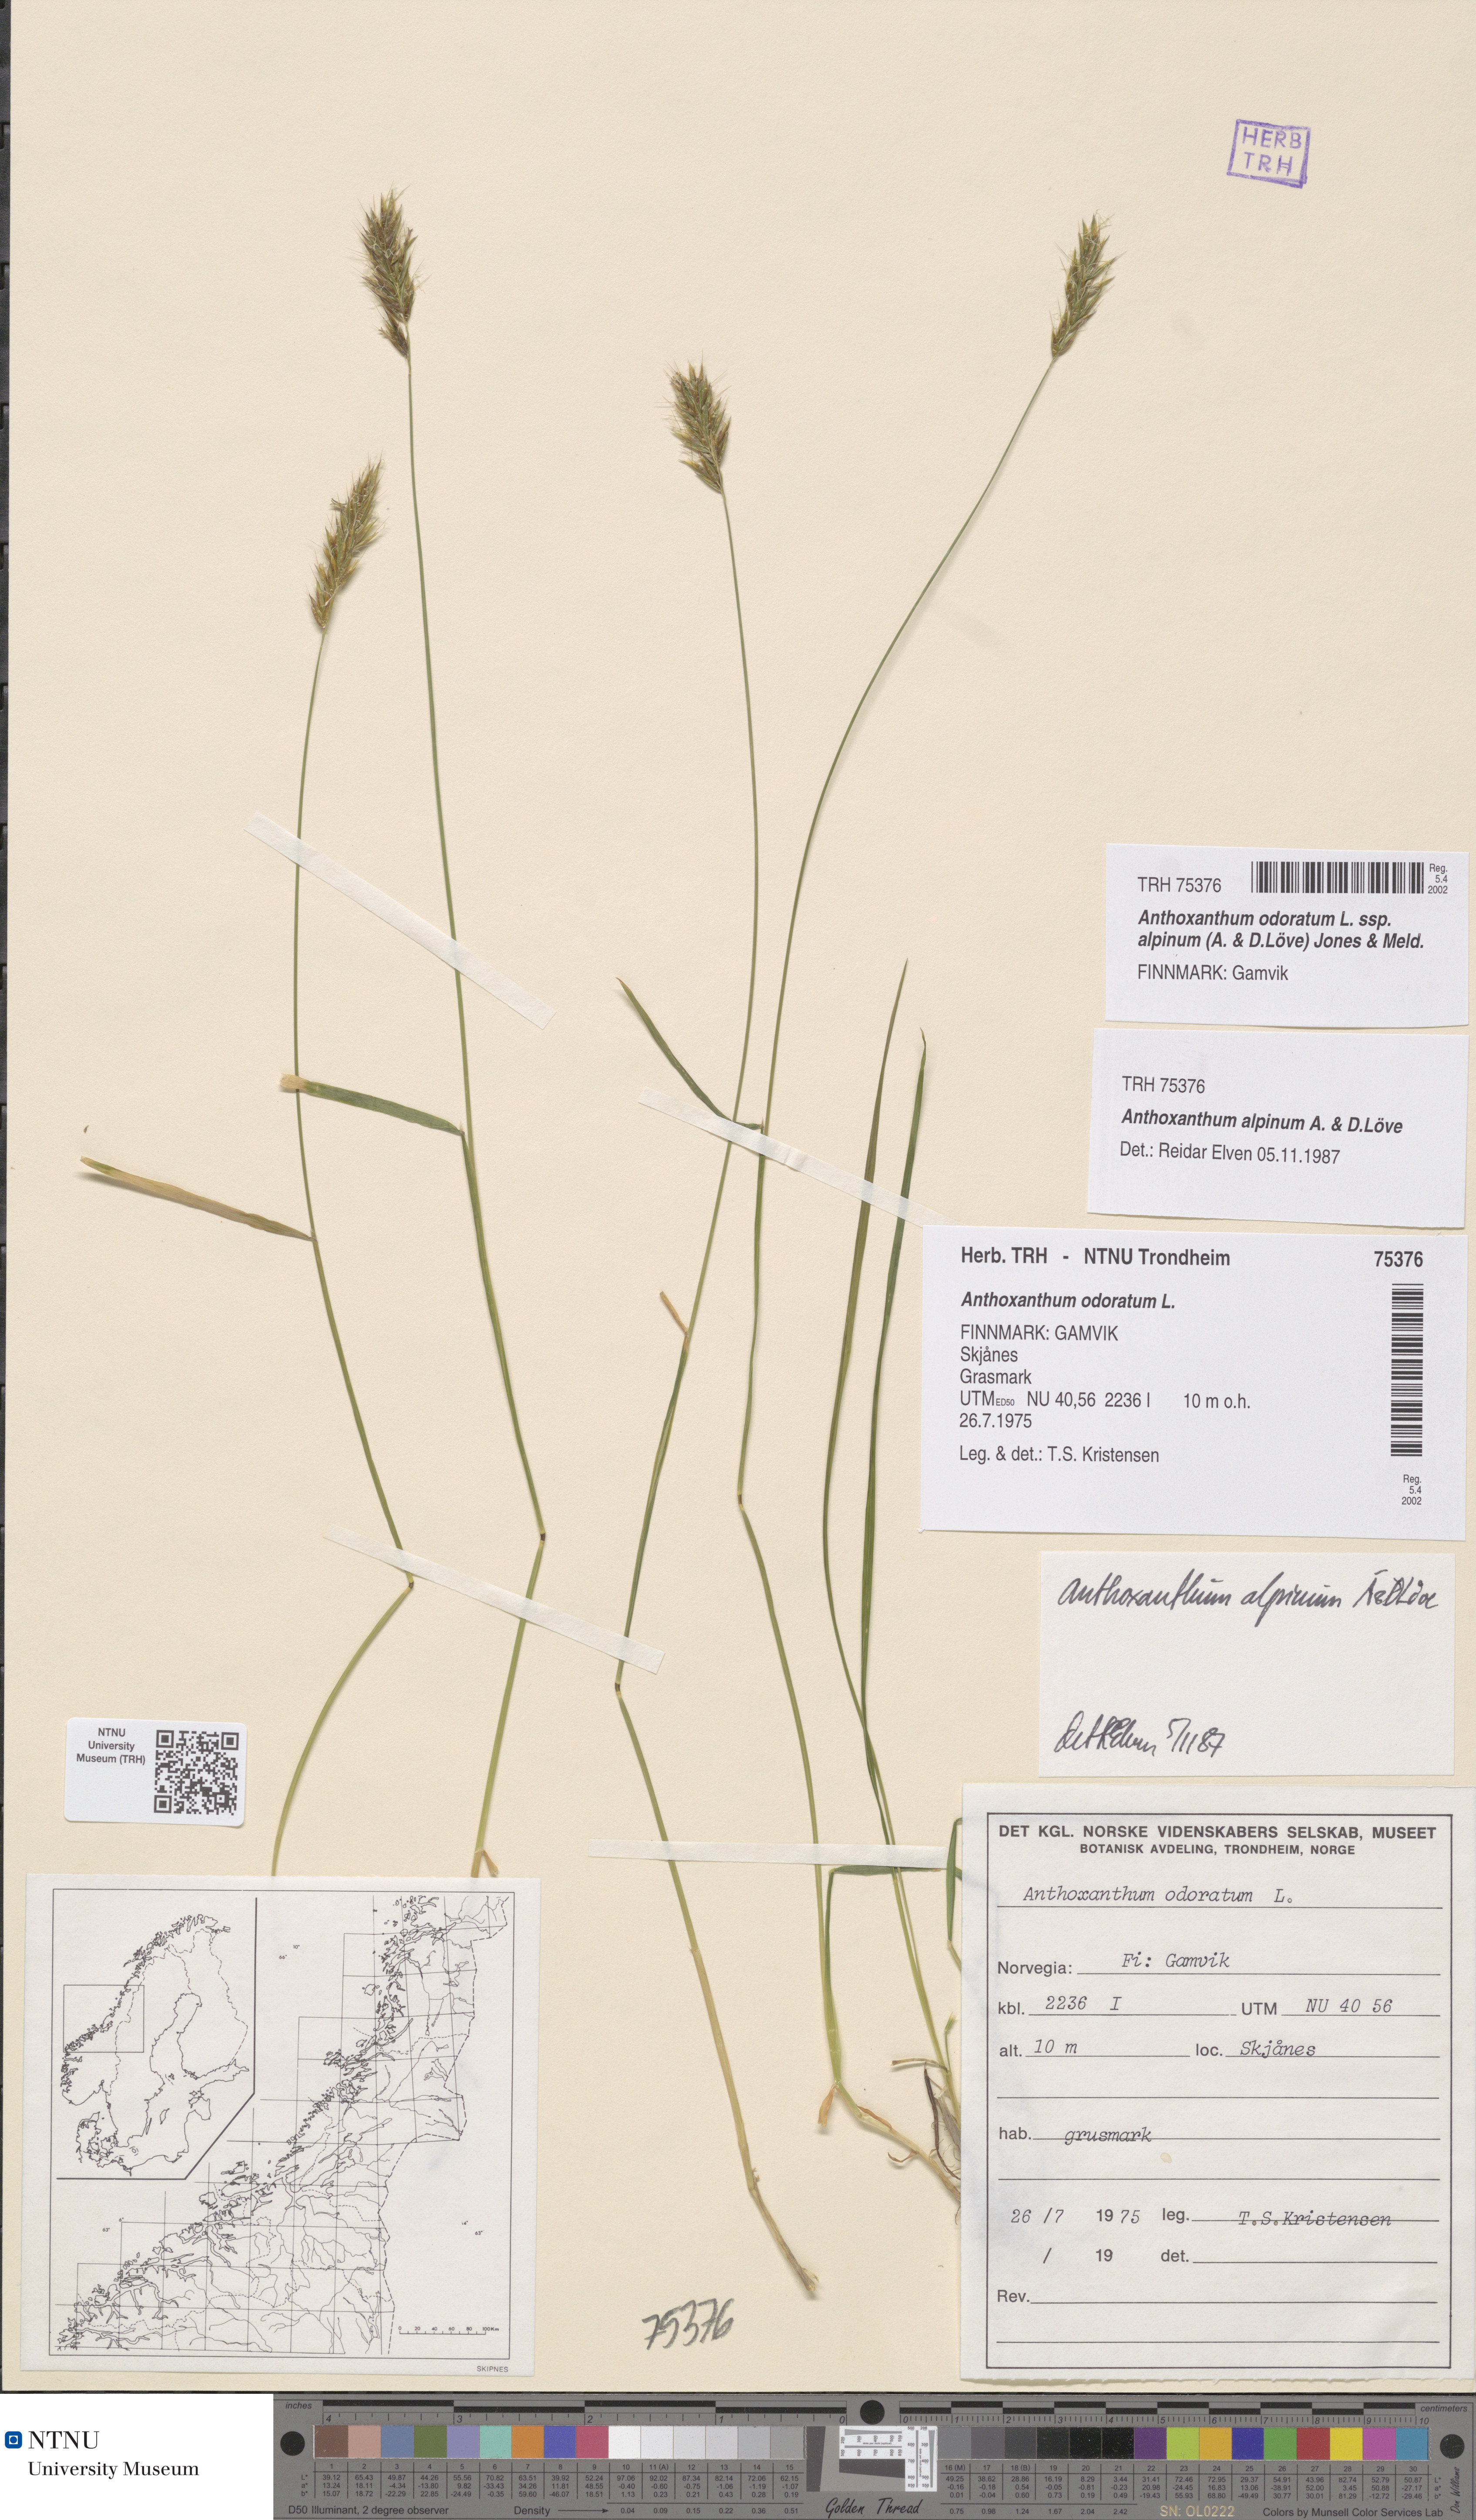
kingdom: Plantae
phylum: Tracheophyta
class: Liliopsida
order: Poales
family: Poaceae
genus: Anthoxanthum
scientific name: Anthoxanthum nipponicum
